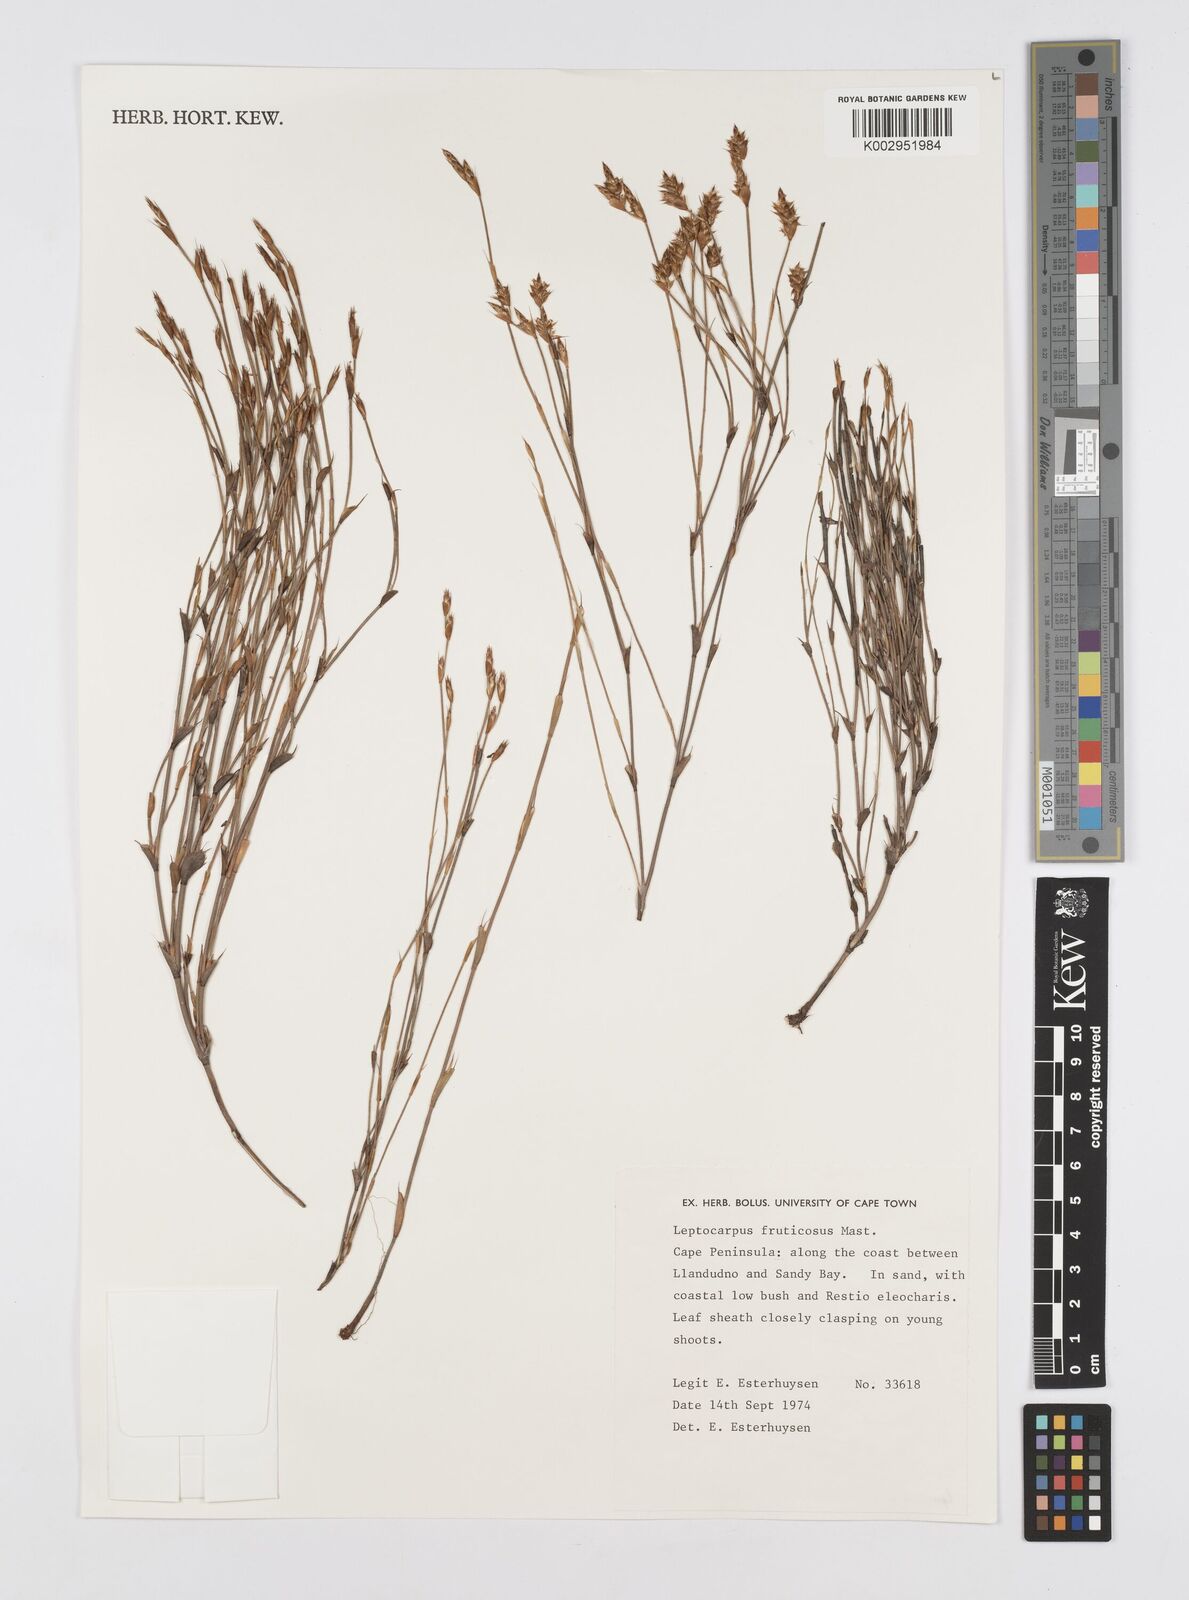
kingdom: Plantae
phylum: Tracheophyta
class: Liliopsida
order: Poales
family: Restionaceae
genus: Rhodocoma
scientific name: Rhodocoma fruticosa
